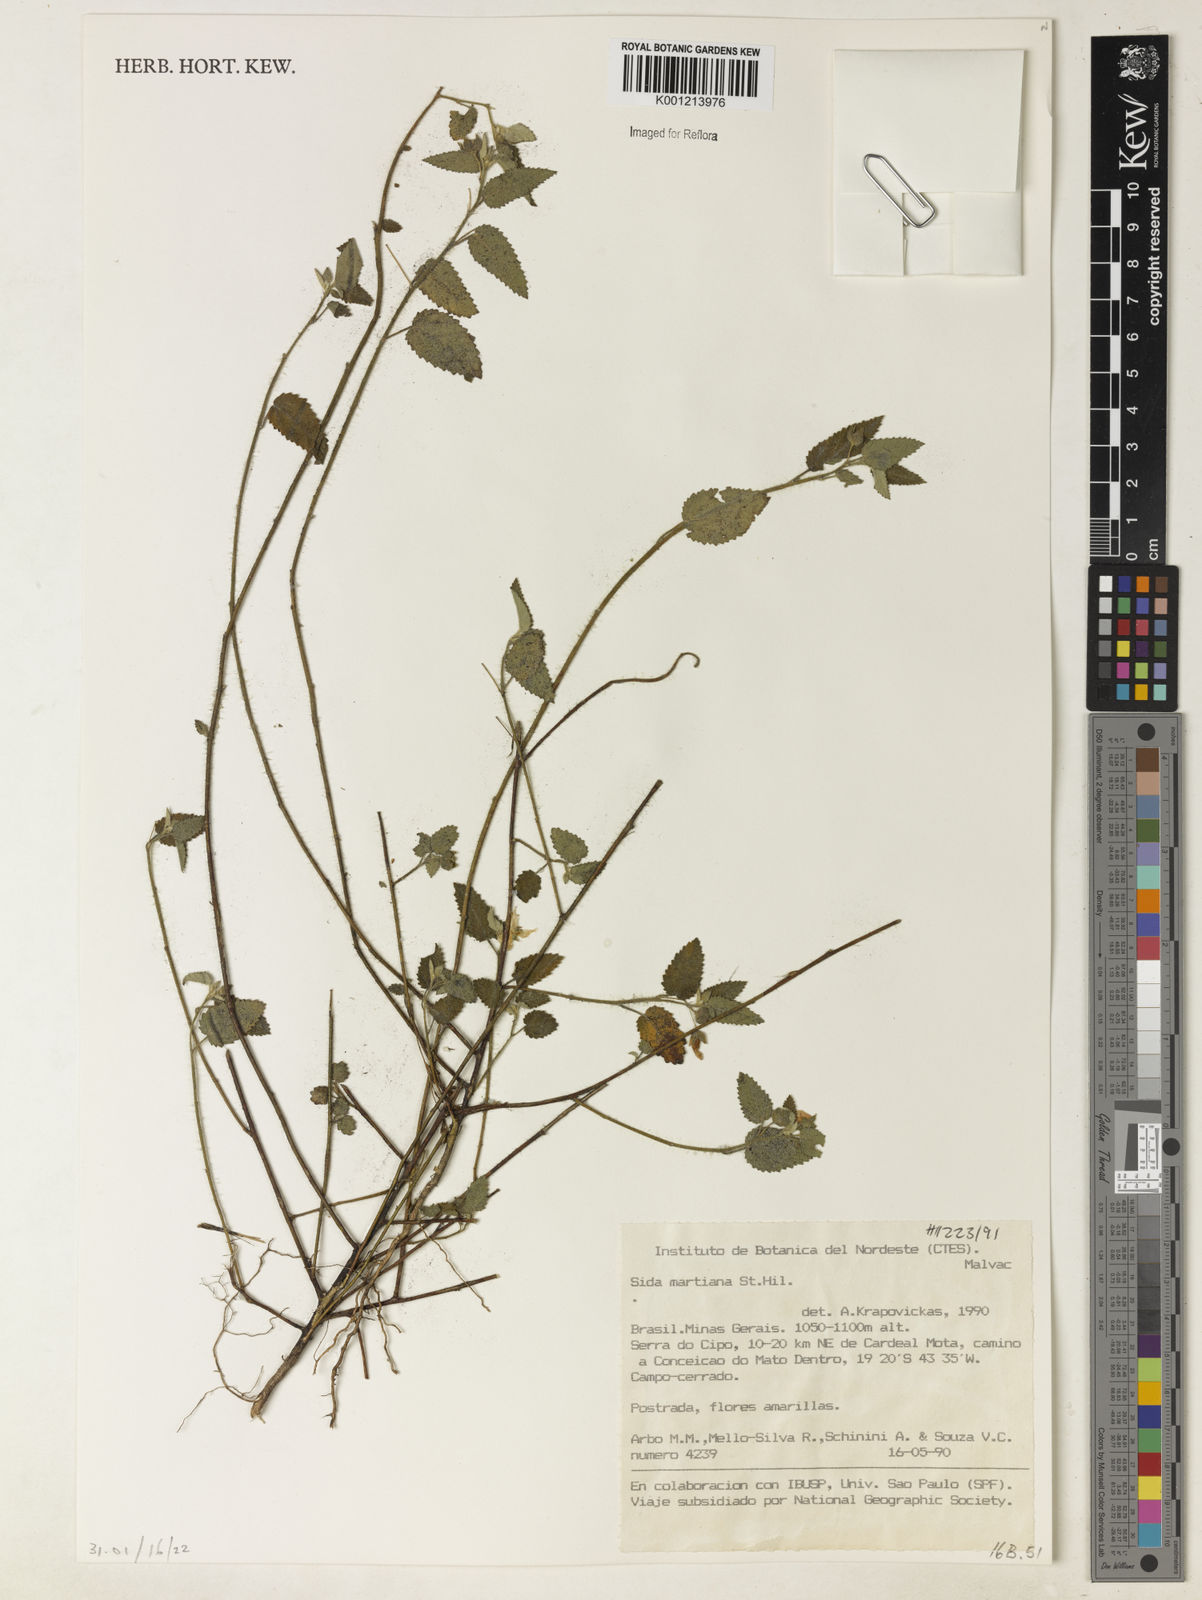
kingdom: Plantae
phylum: Tracheophyta
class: Magnoliopsida
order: Malvales
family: Malvaceae
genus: Sida
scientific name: Sida aurantiaca
